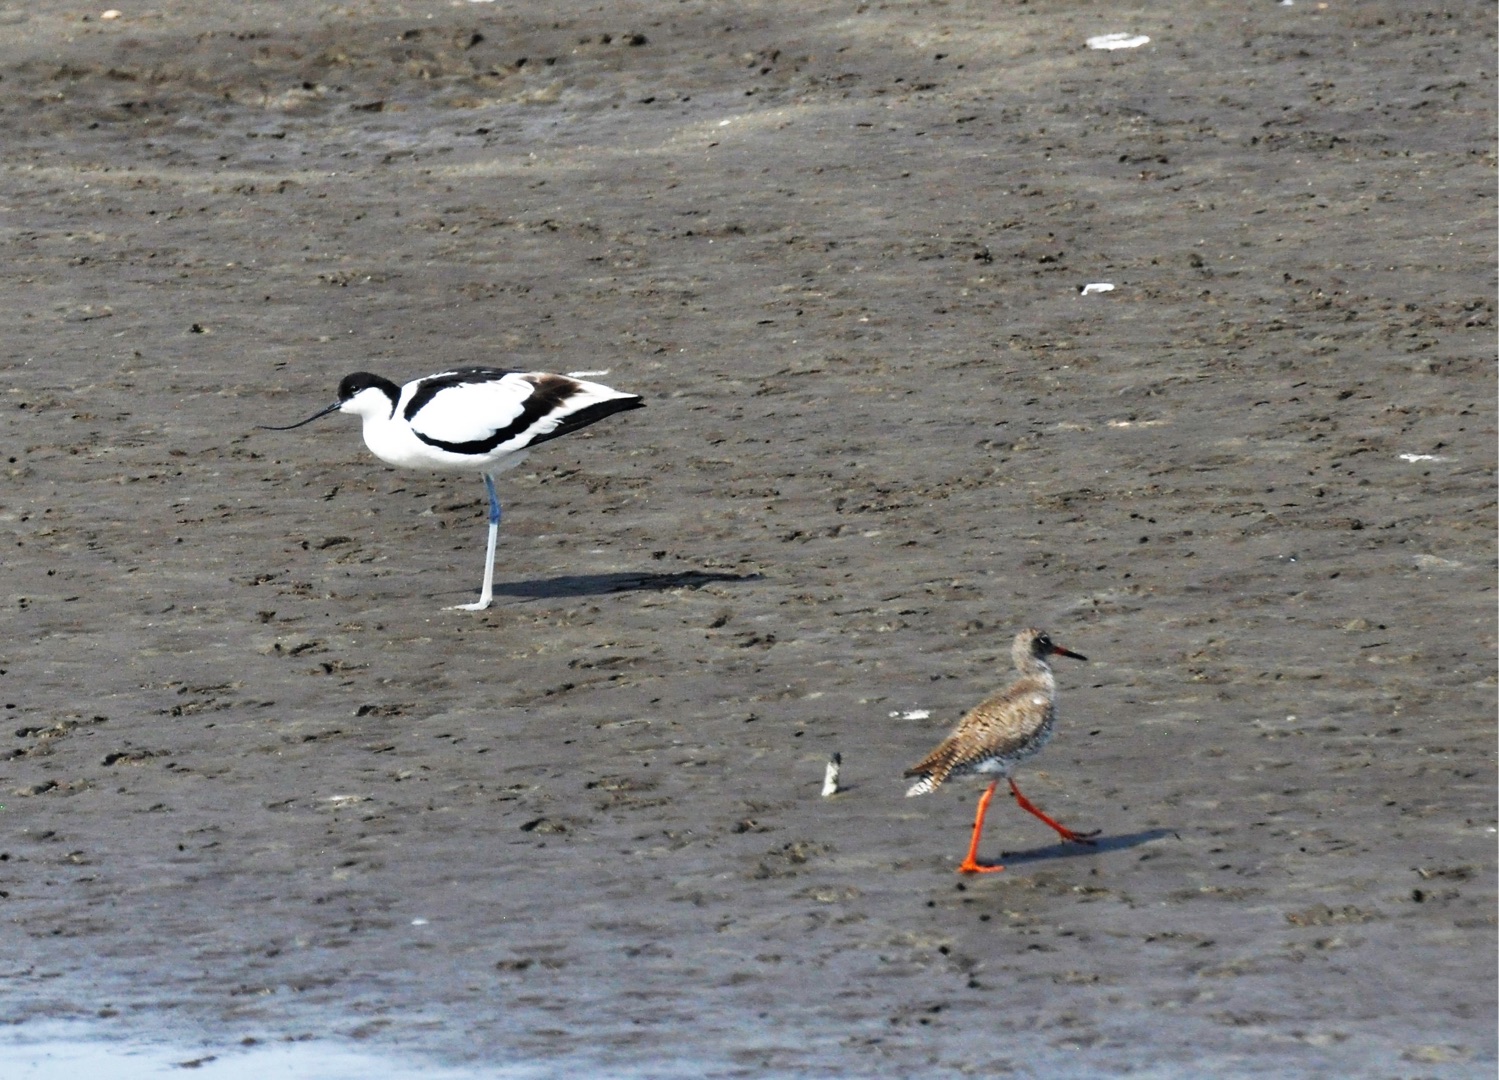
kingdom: Animalia
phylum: Chordata
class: Aves
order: Charadriiformes
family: Recurvirostridae
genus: Recurvirostra
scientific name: Recurvirostra avosetta
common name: Klyde
